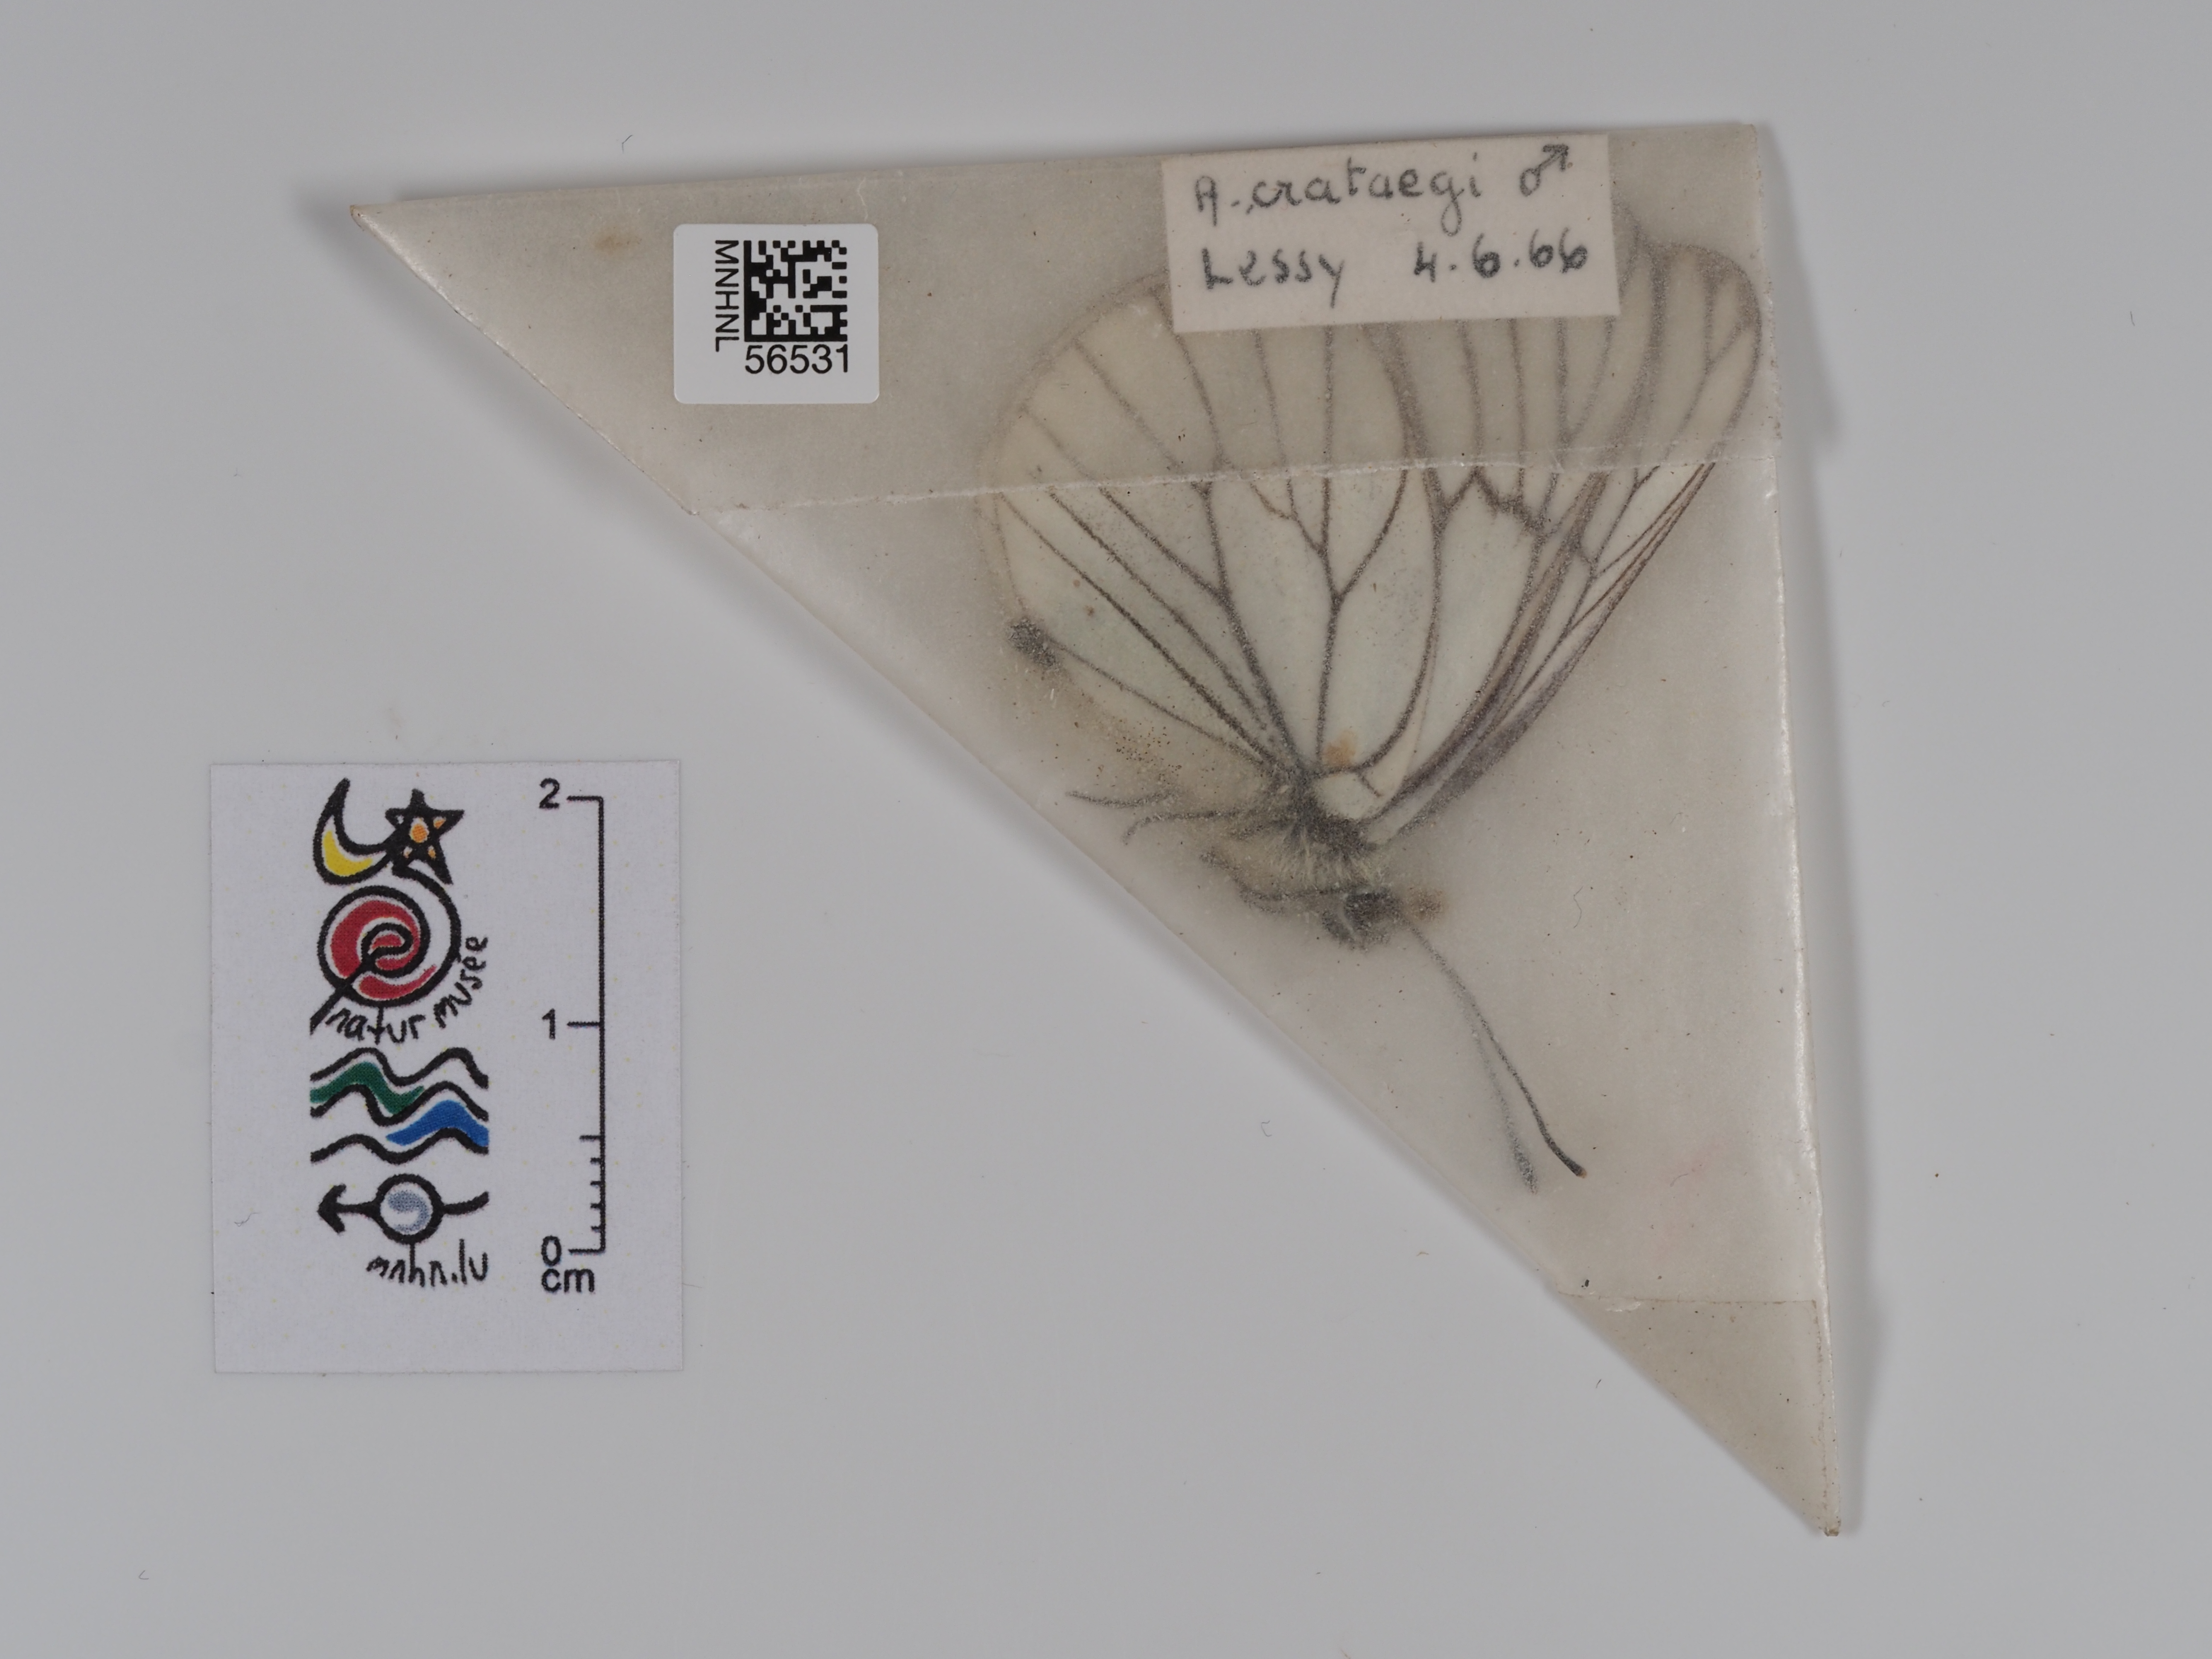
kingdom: Animalia
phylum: Arthropoda
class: Insecta
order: Lepidoptera
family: Pieridae
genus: Aporia
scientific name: Aporia crataegi
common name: Black-veined white
